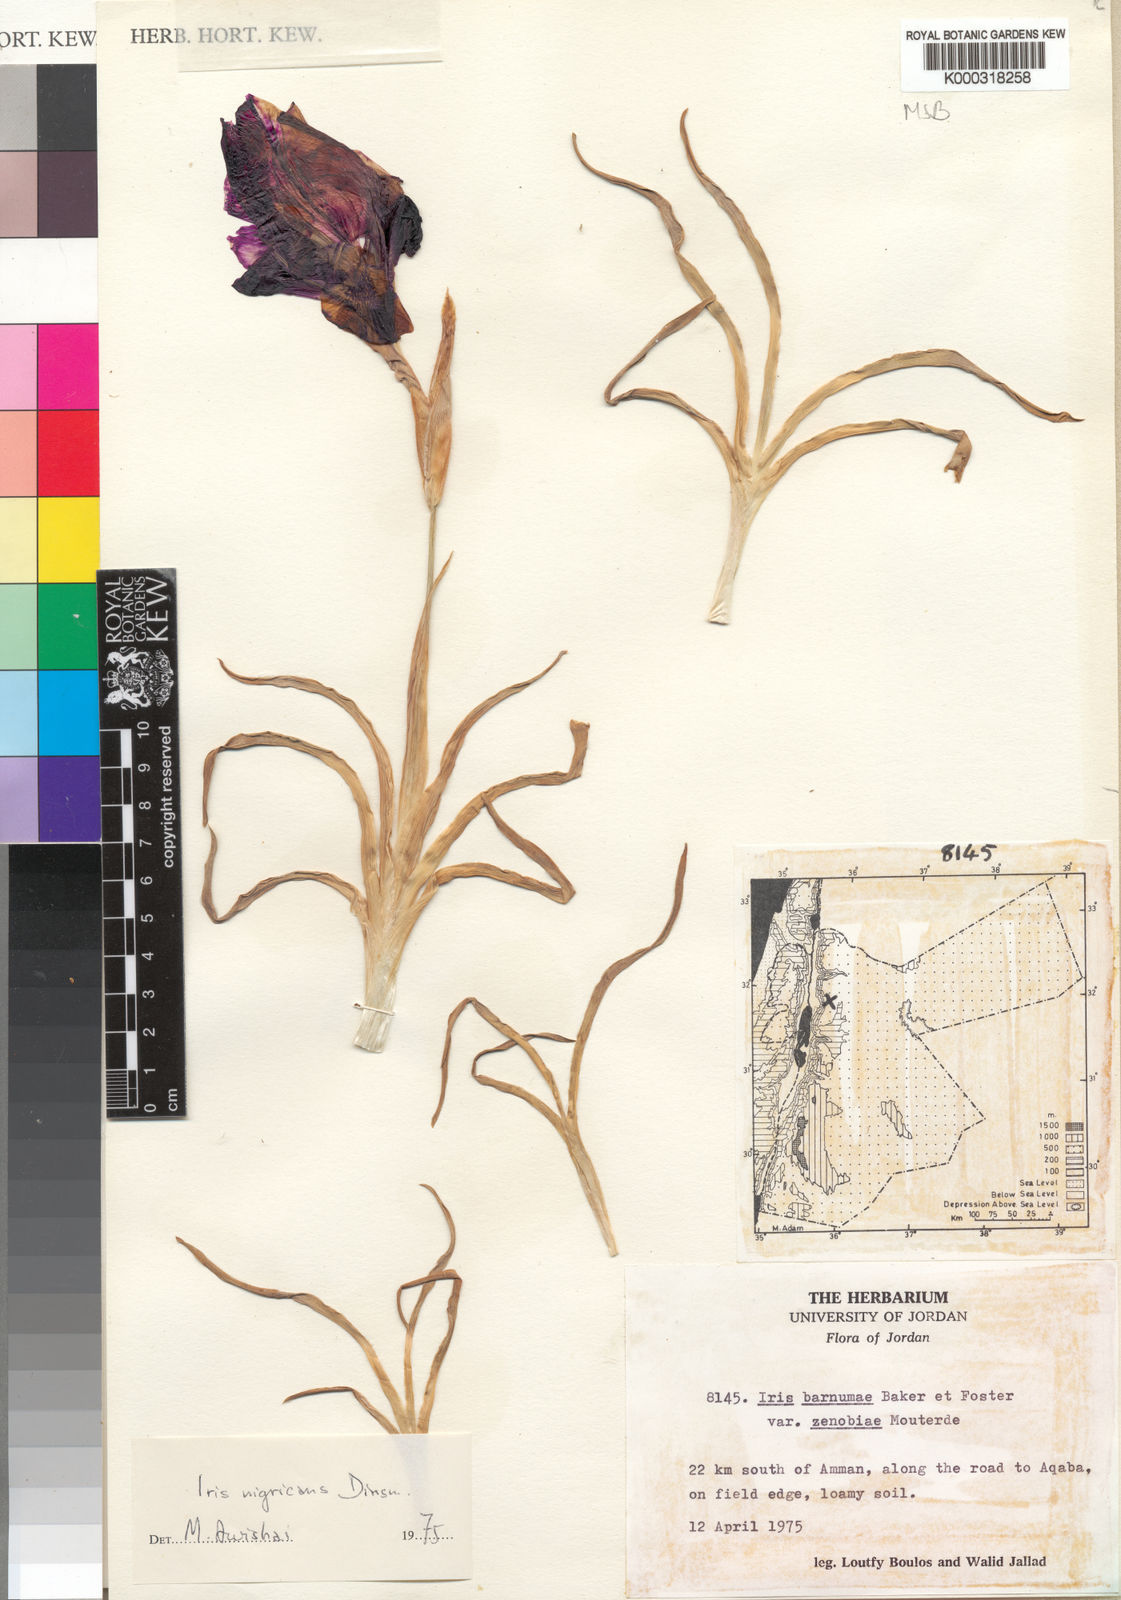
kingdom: Plantae
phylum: Tracheophyta
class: Liliopsida
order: Asparagales
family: Iridaceae
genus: Iris
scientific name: Iris nigricans
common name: Black iris
